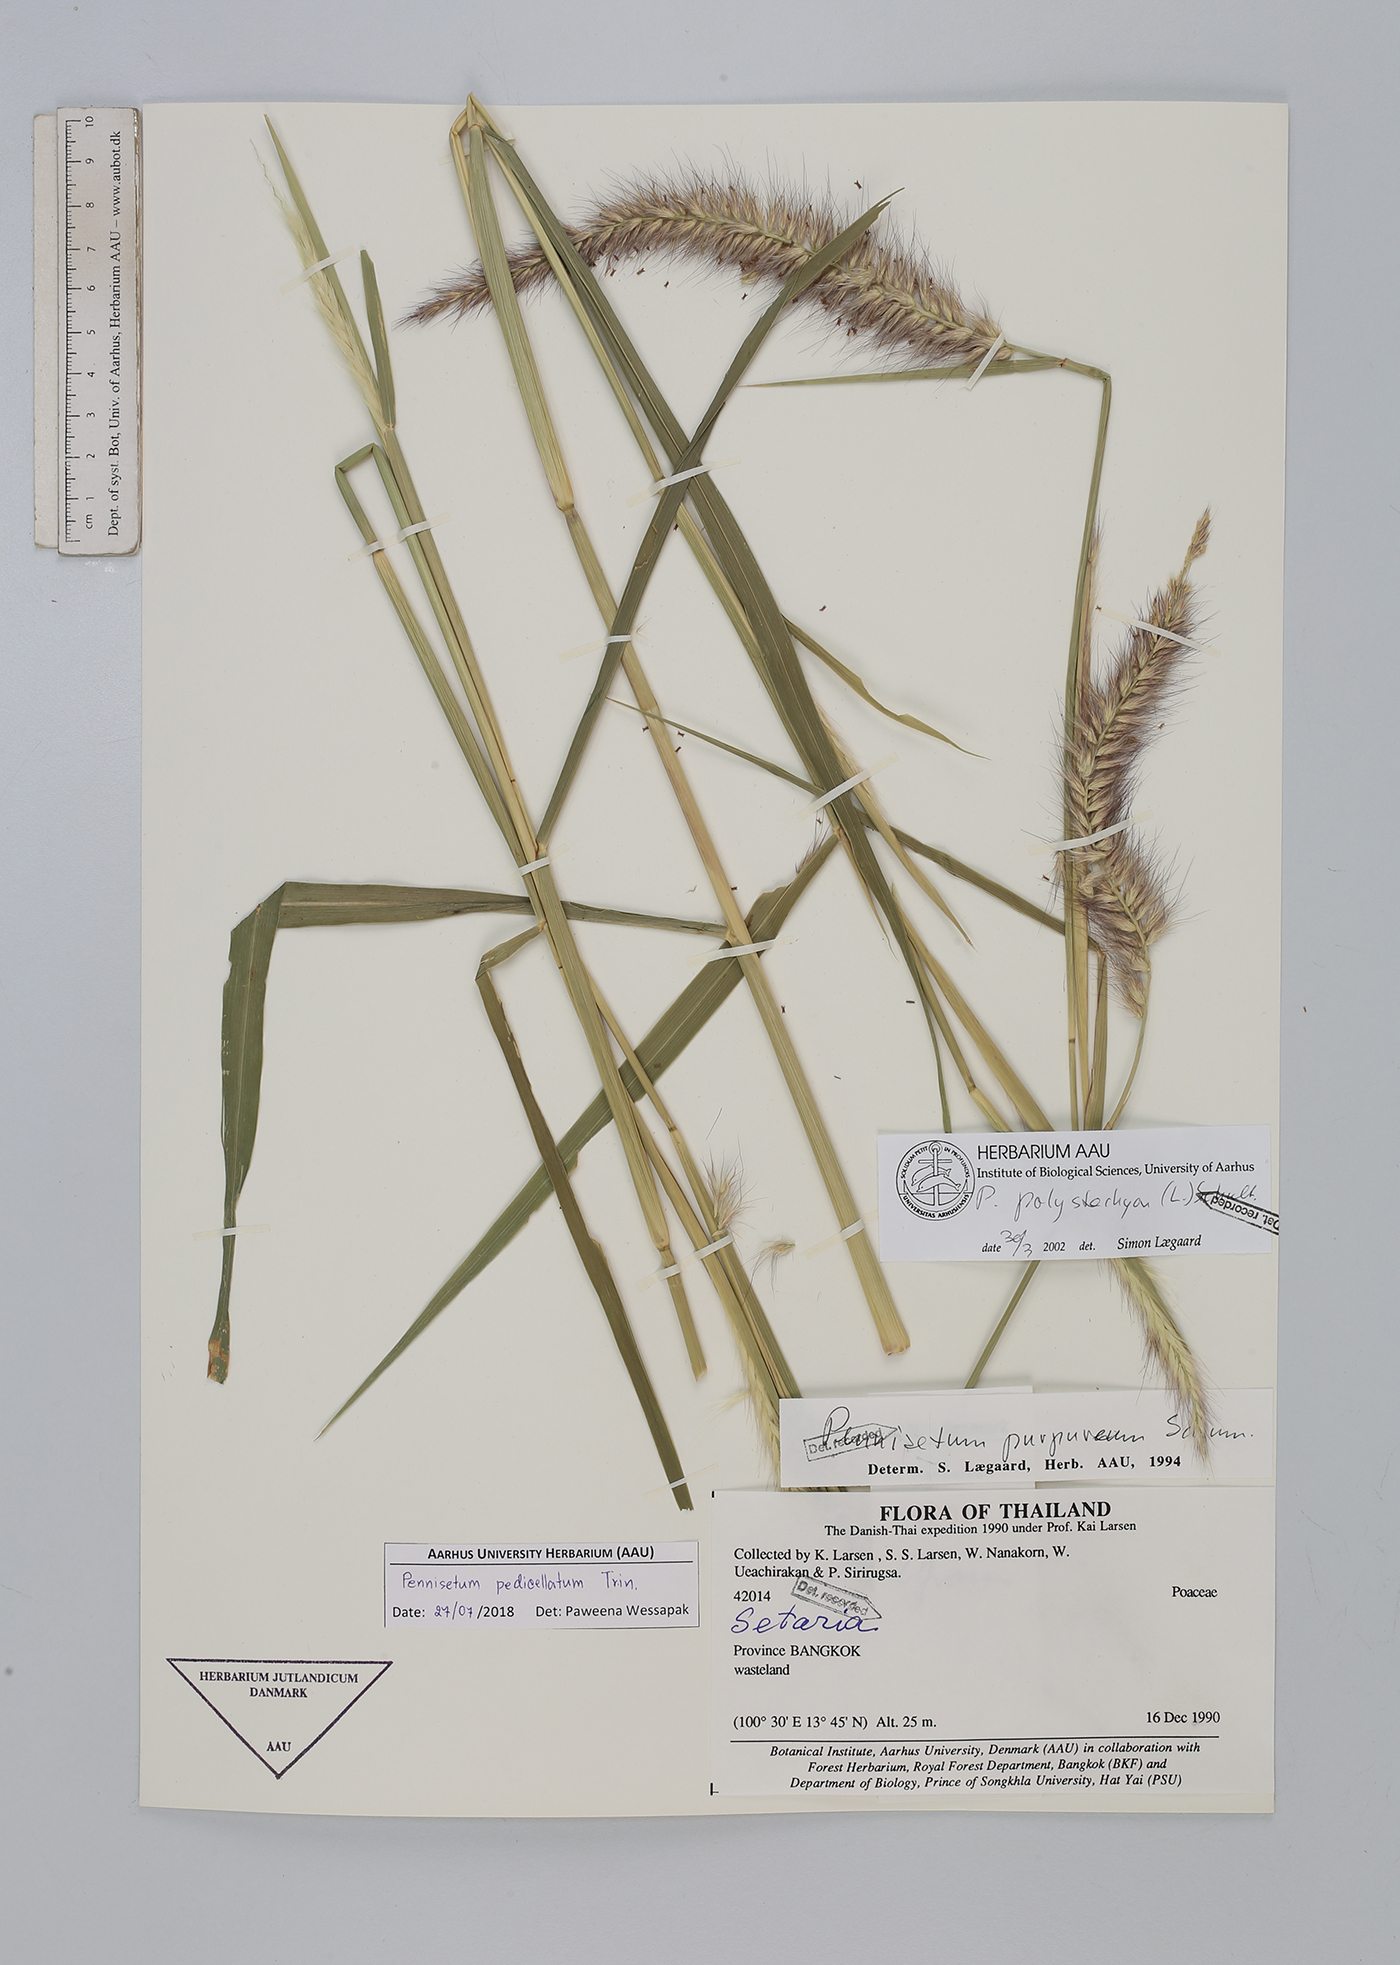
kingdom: Plantae
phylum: Tracheophyta
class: Liliopsida
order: Poales
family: Poaceae
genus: Cenchrus
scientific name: Cenchrus pedicellatus
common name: Hairy fountain grass
